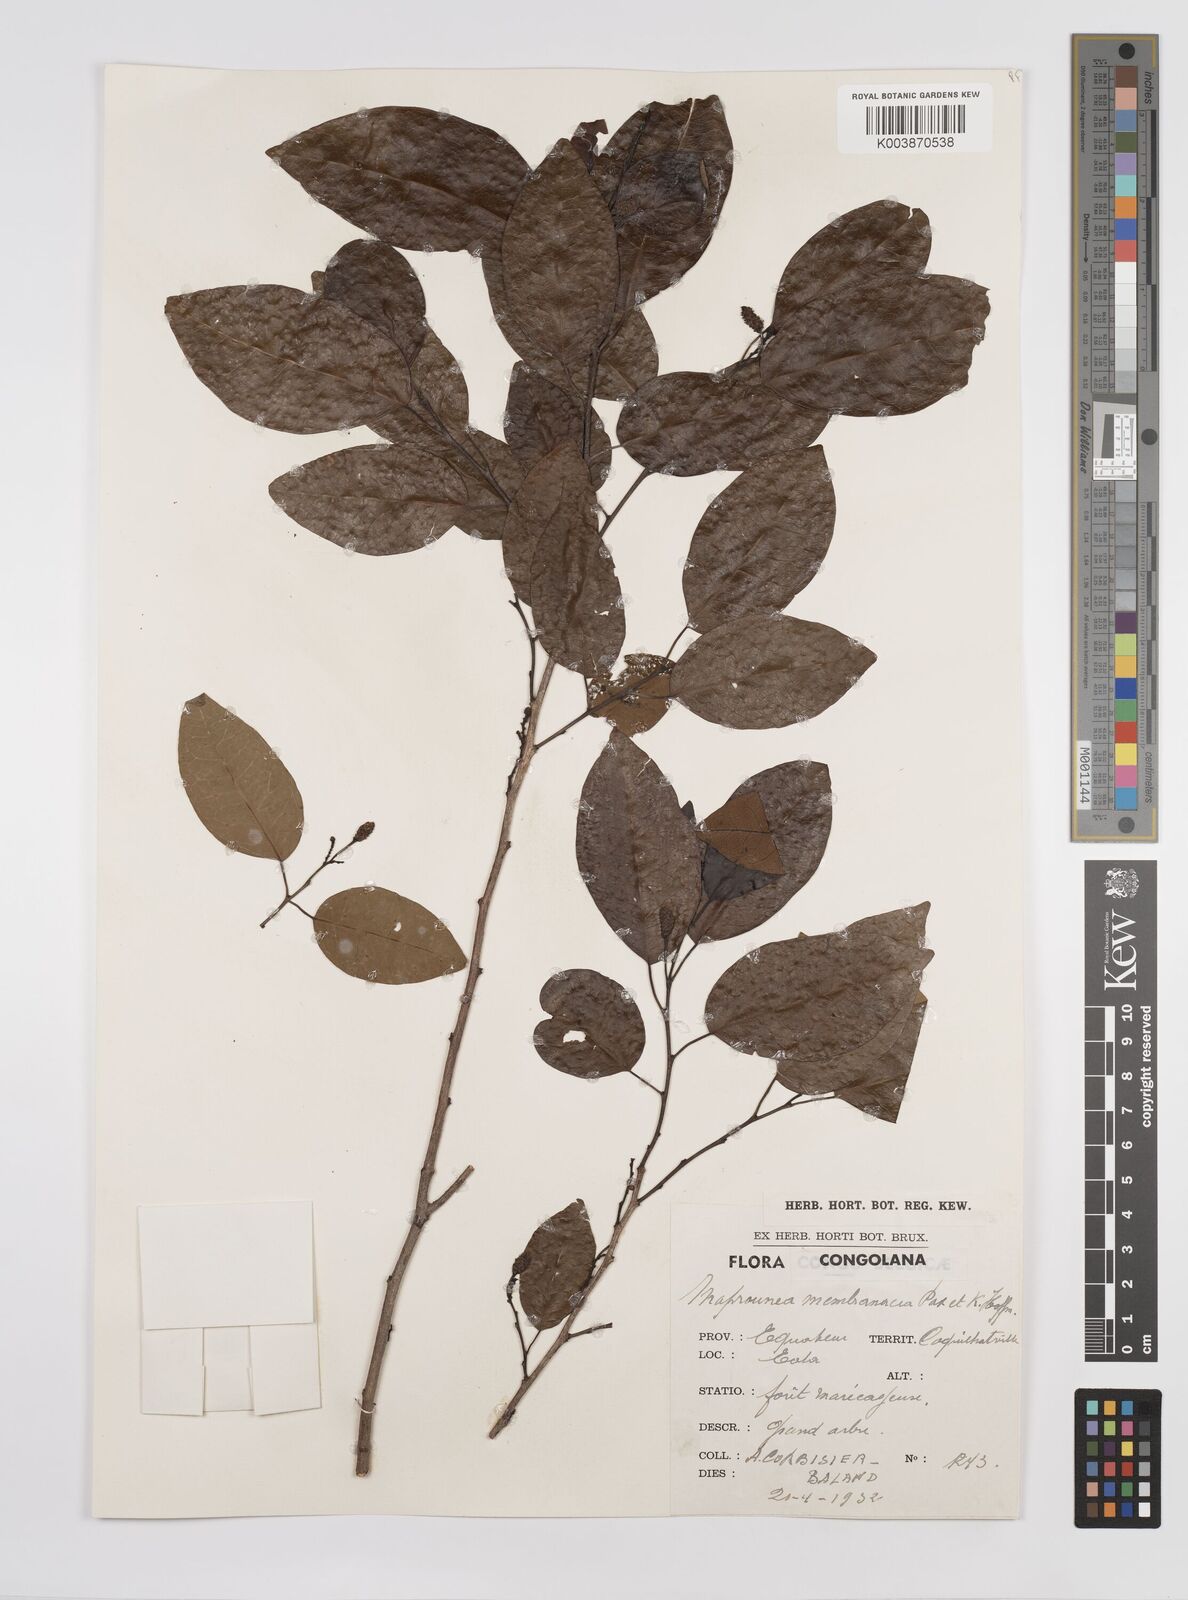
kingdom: Plantae
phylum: Tracheophyta
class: Magnoliopsida
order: Malpighiales
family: Euphorbiaceae
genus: Maprounea
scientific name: Maprounea membranacea
